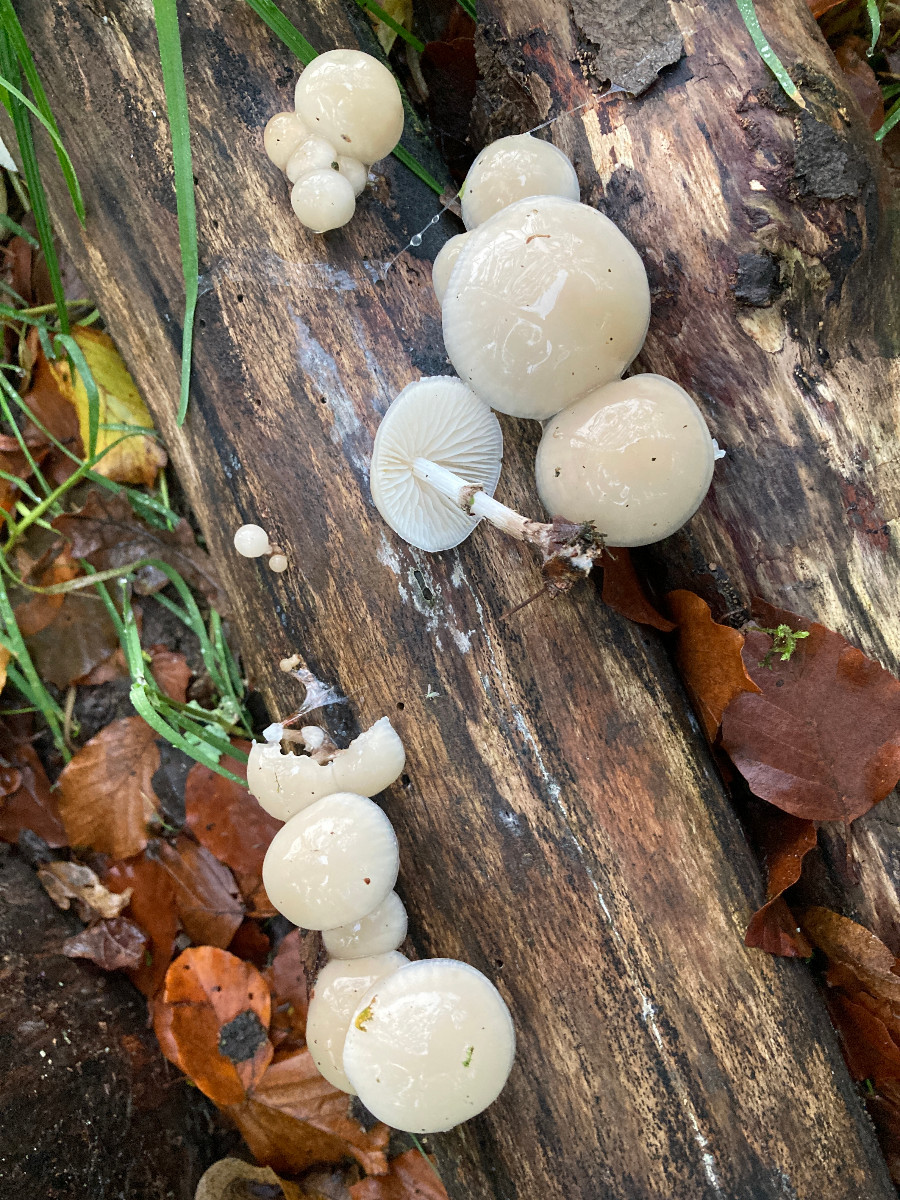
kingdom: Fungi
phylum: Basidiomycota
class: Agaricomycetes
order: Agaricales
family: Physalacriaceae
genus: Mucidula
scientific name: Mucidula mucida
